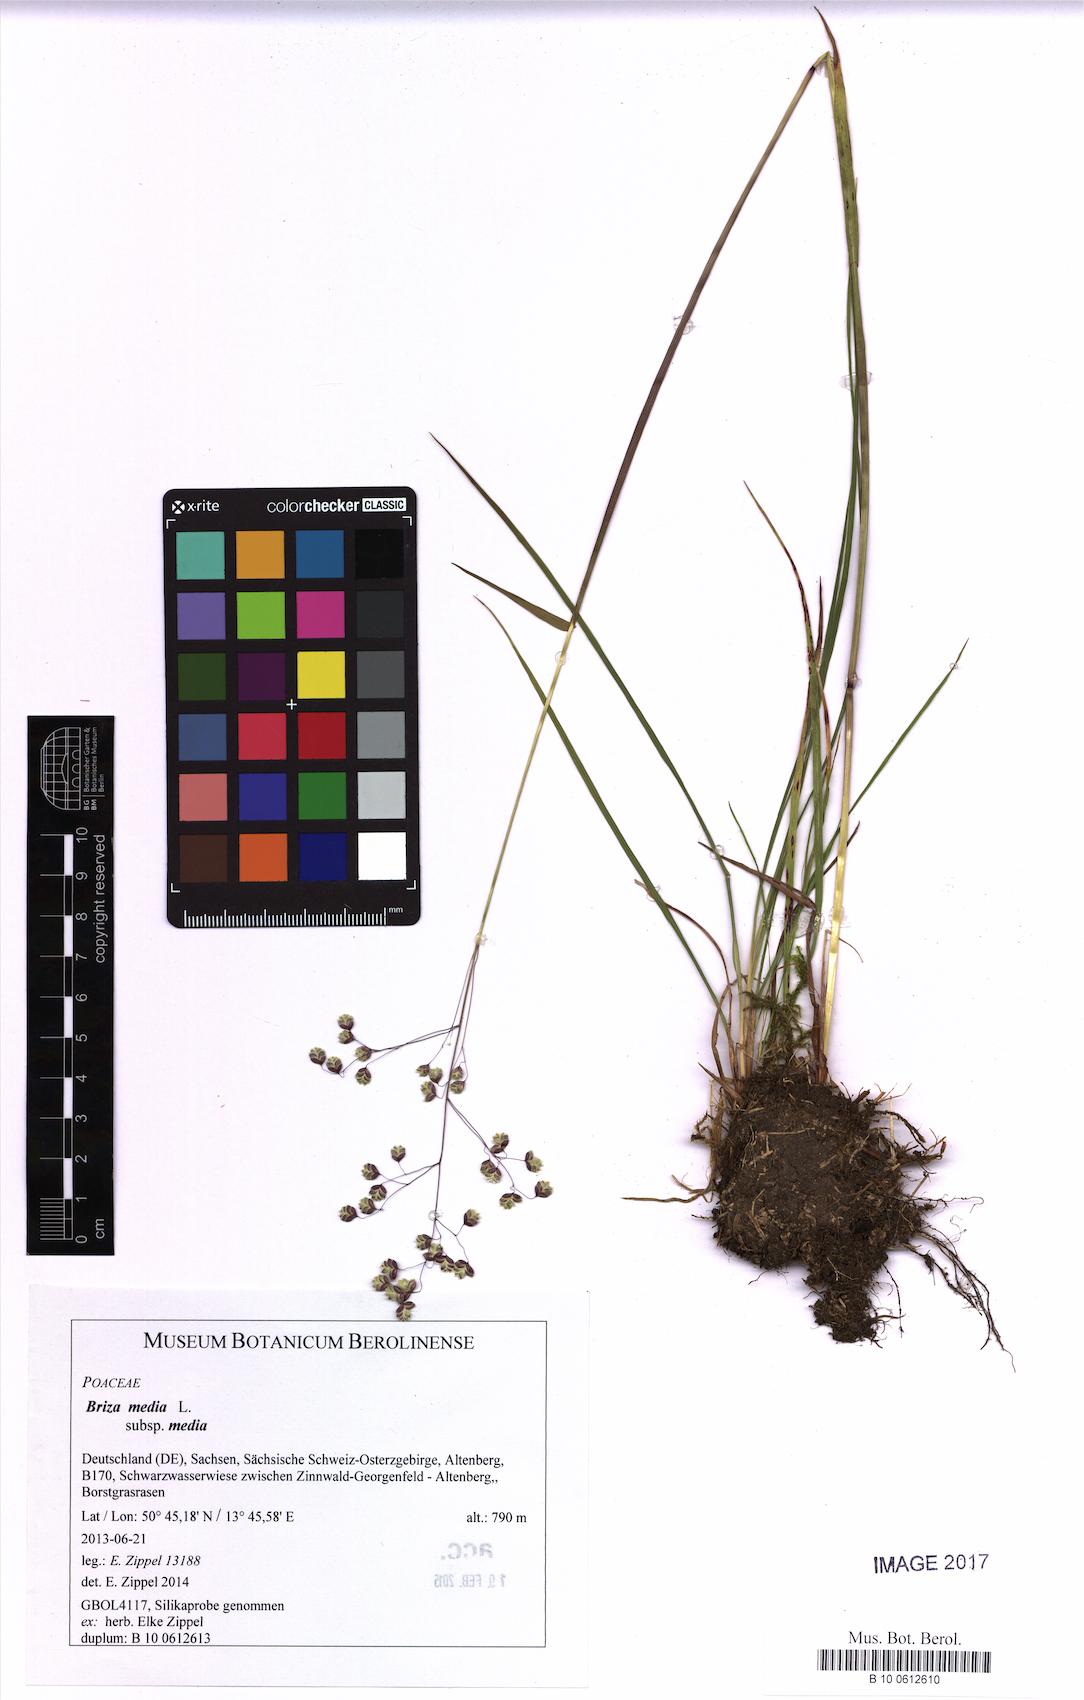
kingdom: Plantae
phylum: Tracheophyta
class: Liliopsida
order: Poales
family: Poaceae
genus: Briza
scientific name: Briza media
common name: Quaking grass
